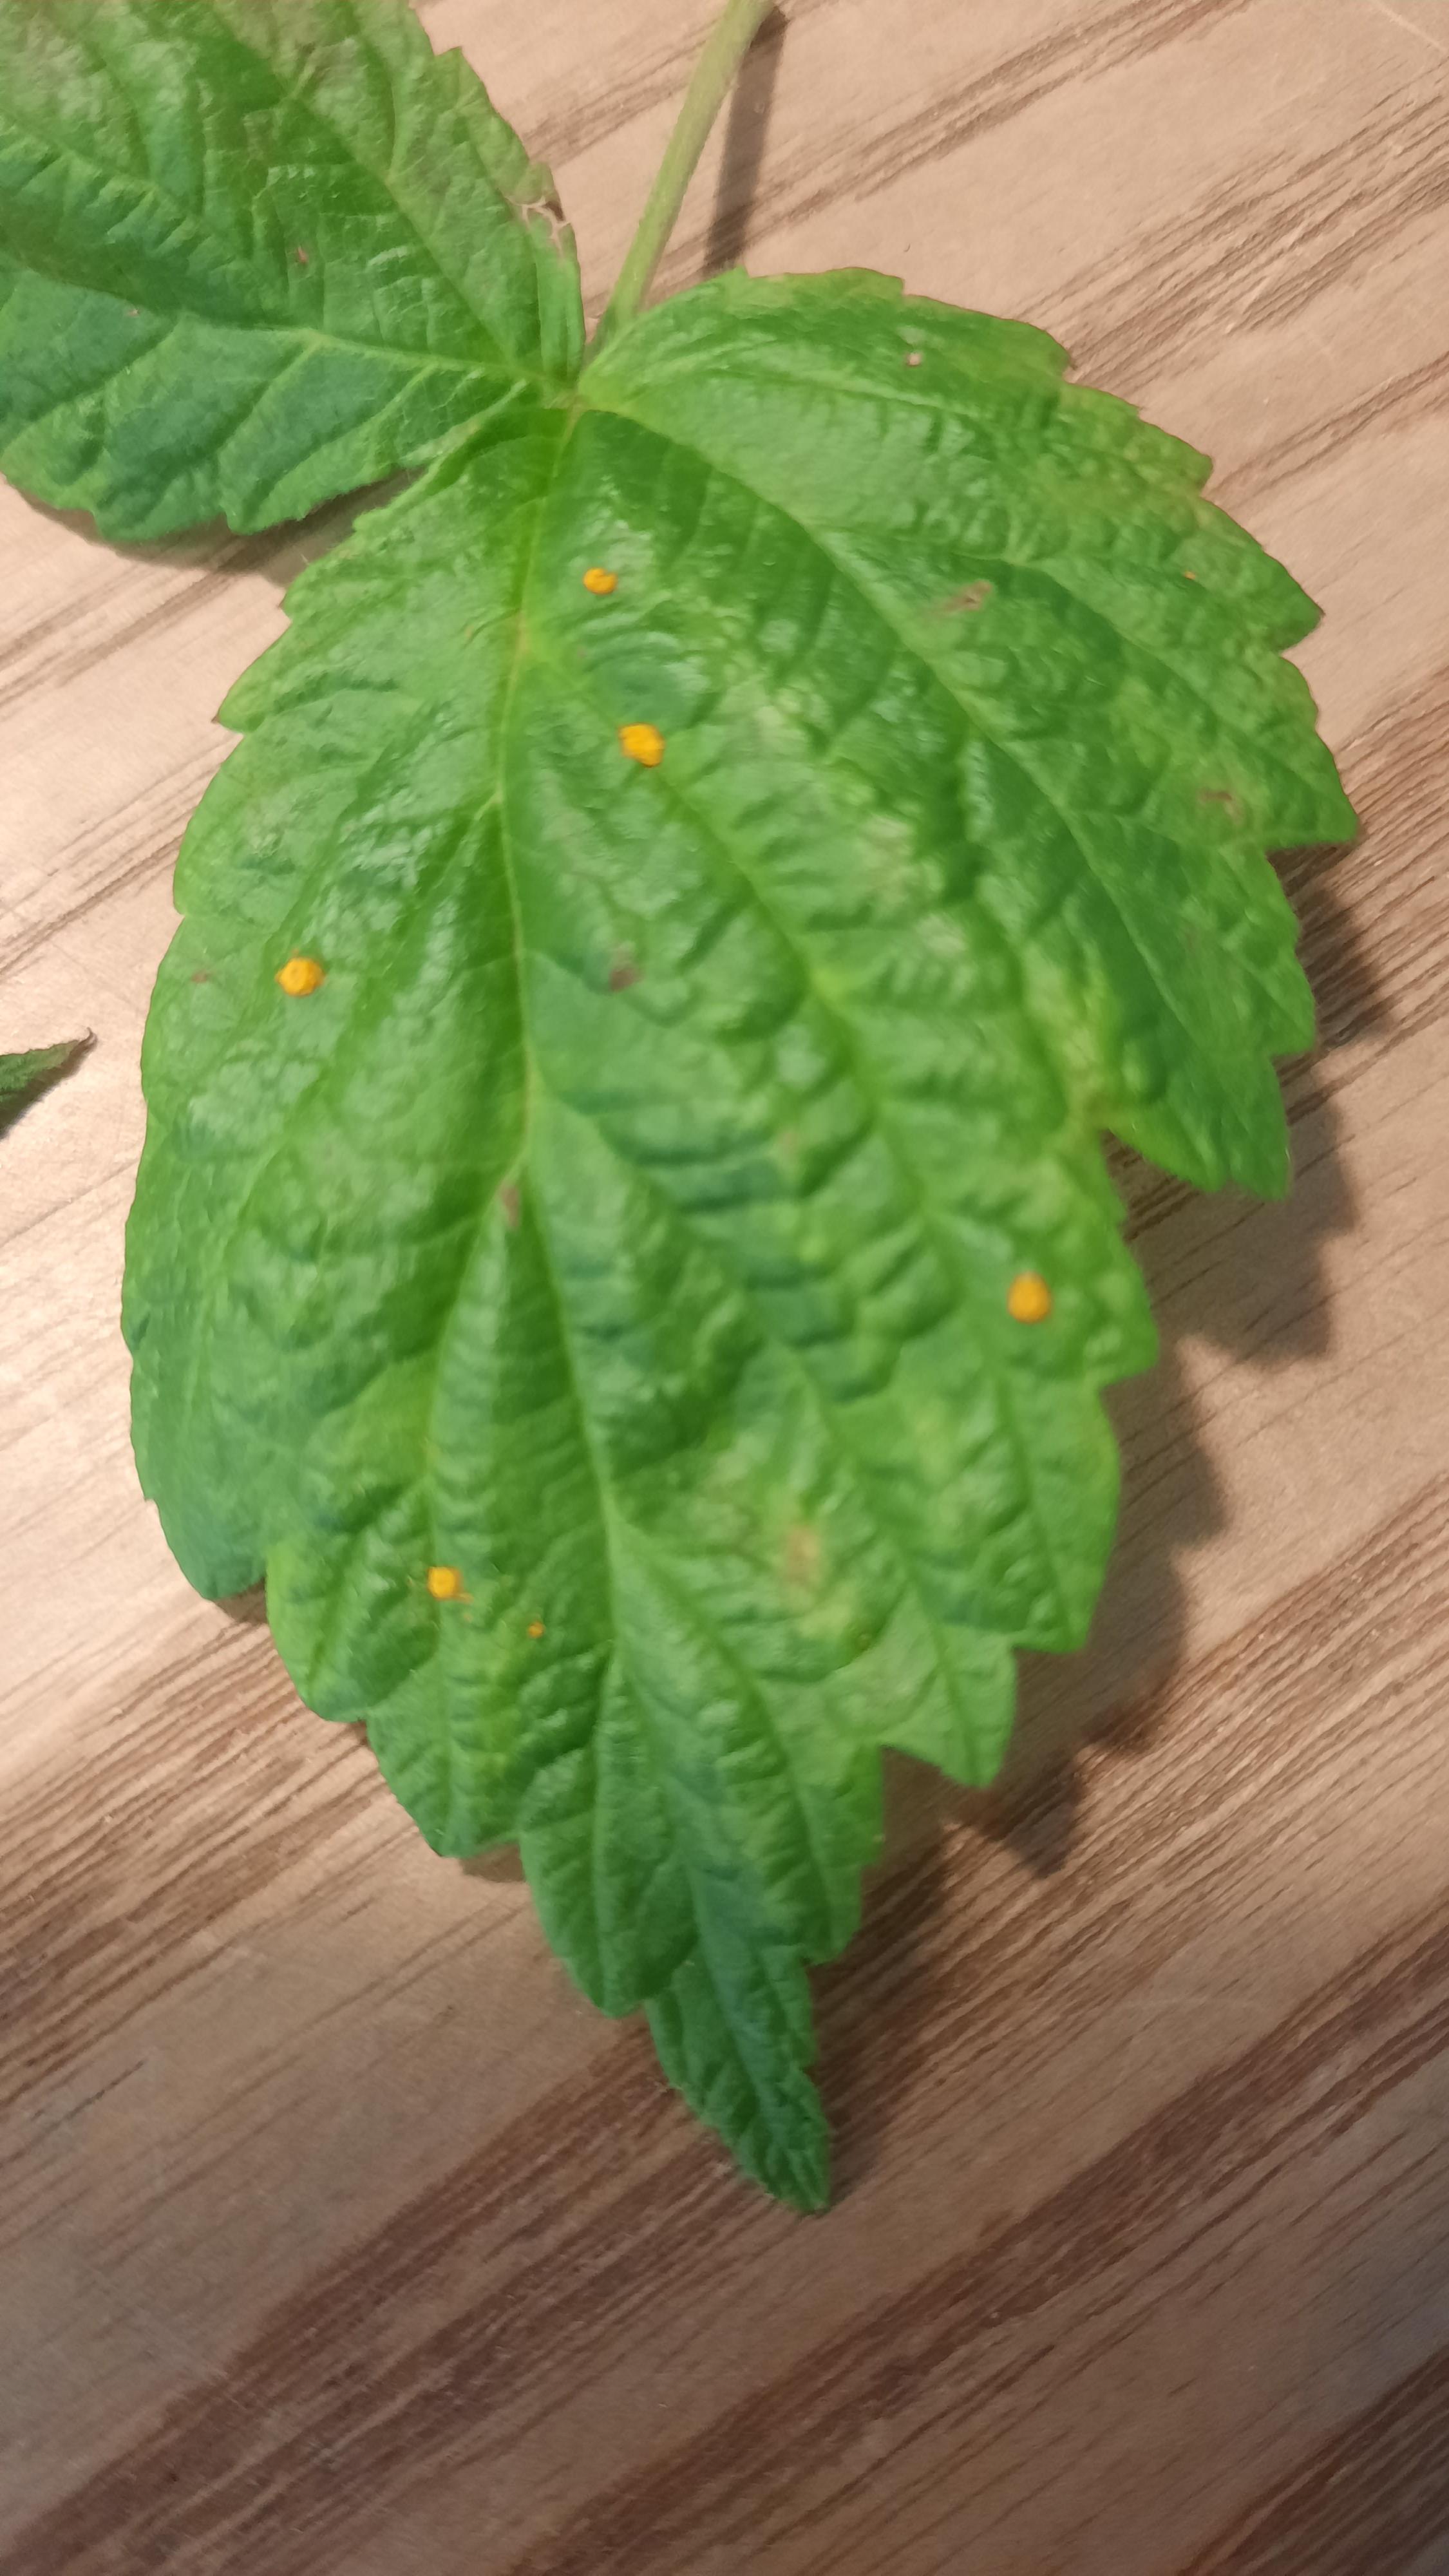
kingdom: Fungi
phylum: Basidiomycota
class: Pucciniomycetes
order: Pucciniales
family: Phragmidiaceae
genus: Phragmidium
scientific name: Phragmidium rubi-idaei
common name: hindbær-flercellerust
